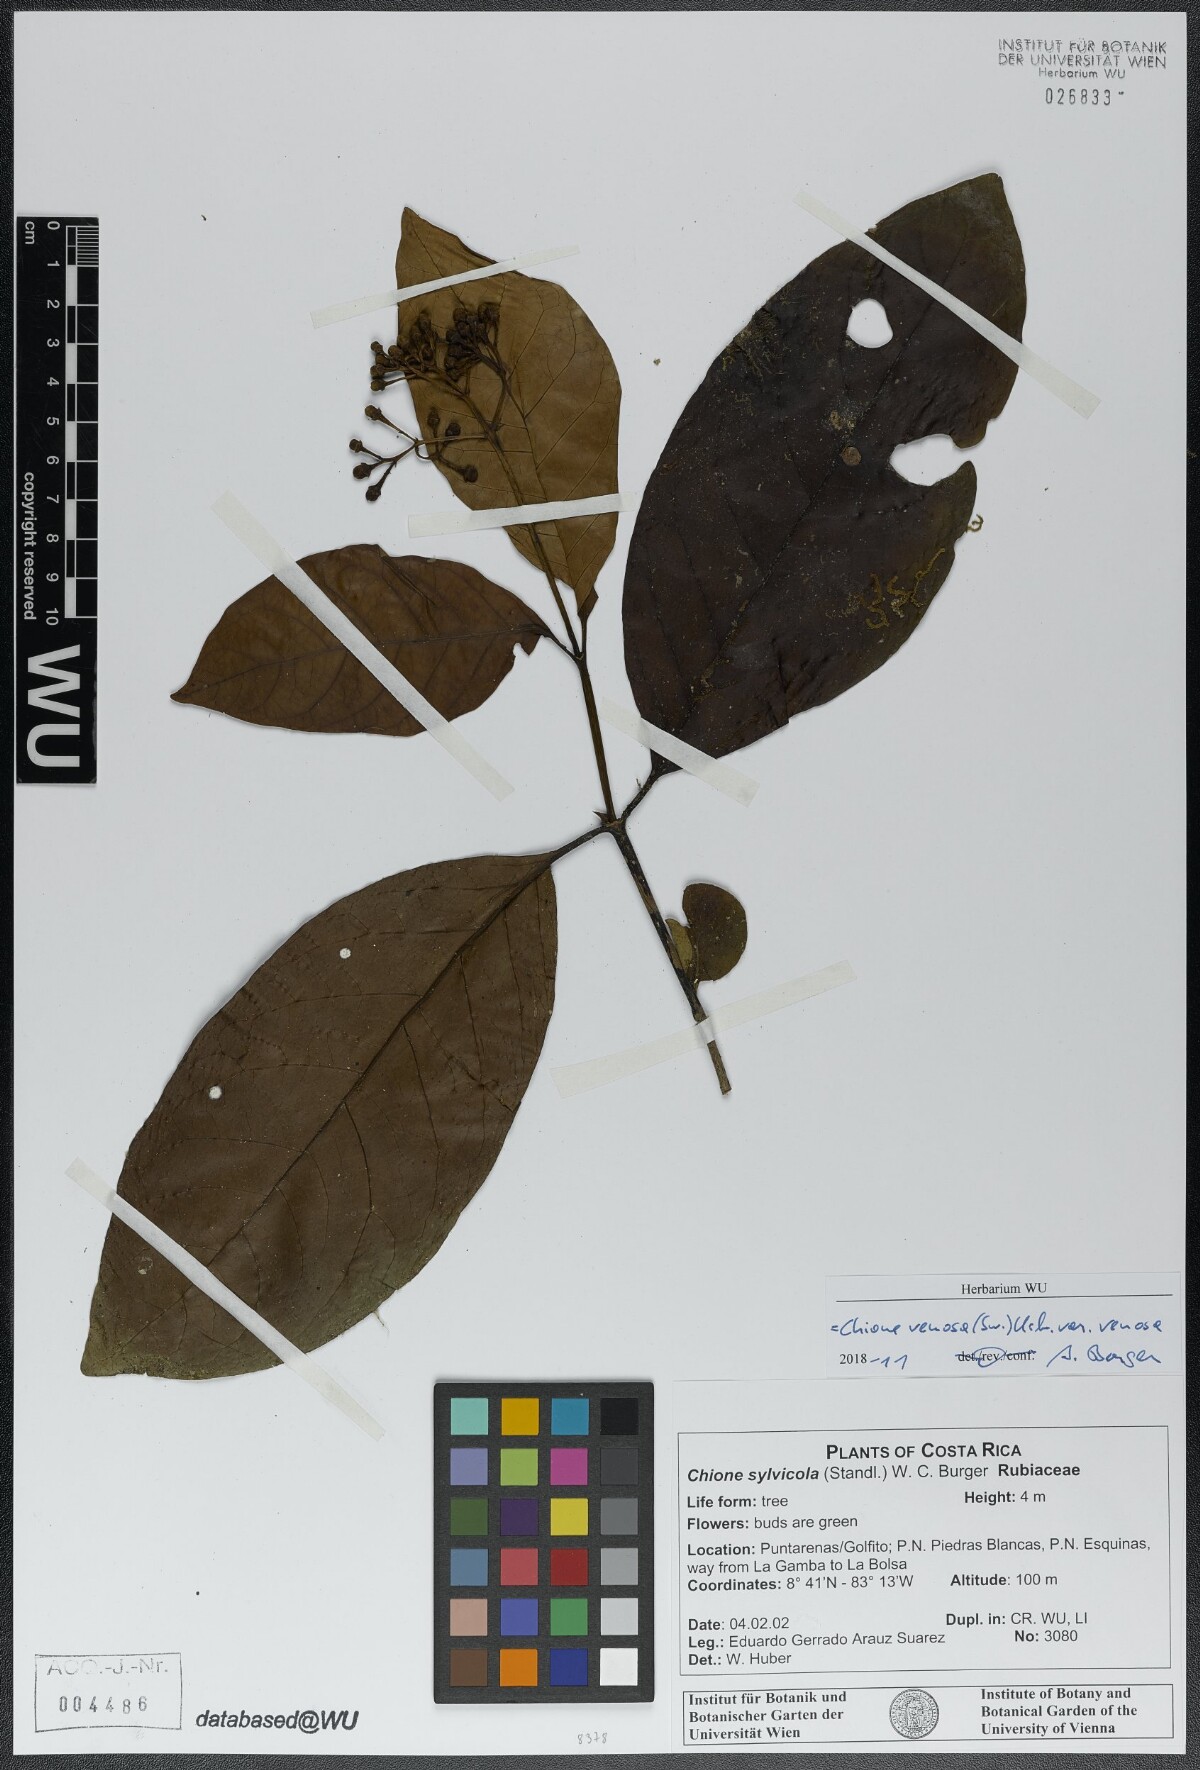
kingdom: Plantae
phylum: Tracheophyta
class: Magnoliopsida
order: Gentianales
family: Rubiaceae
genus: Chione
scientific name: Chione venosa
